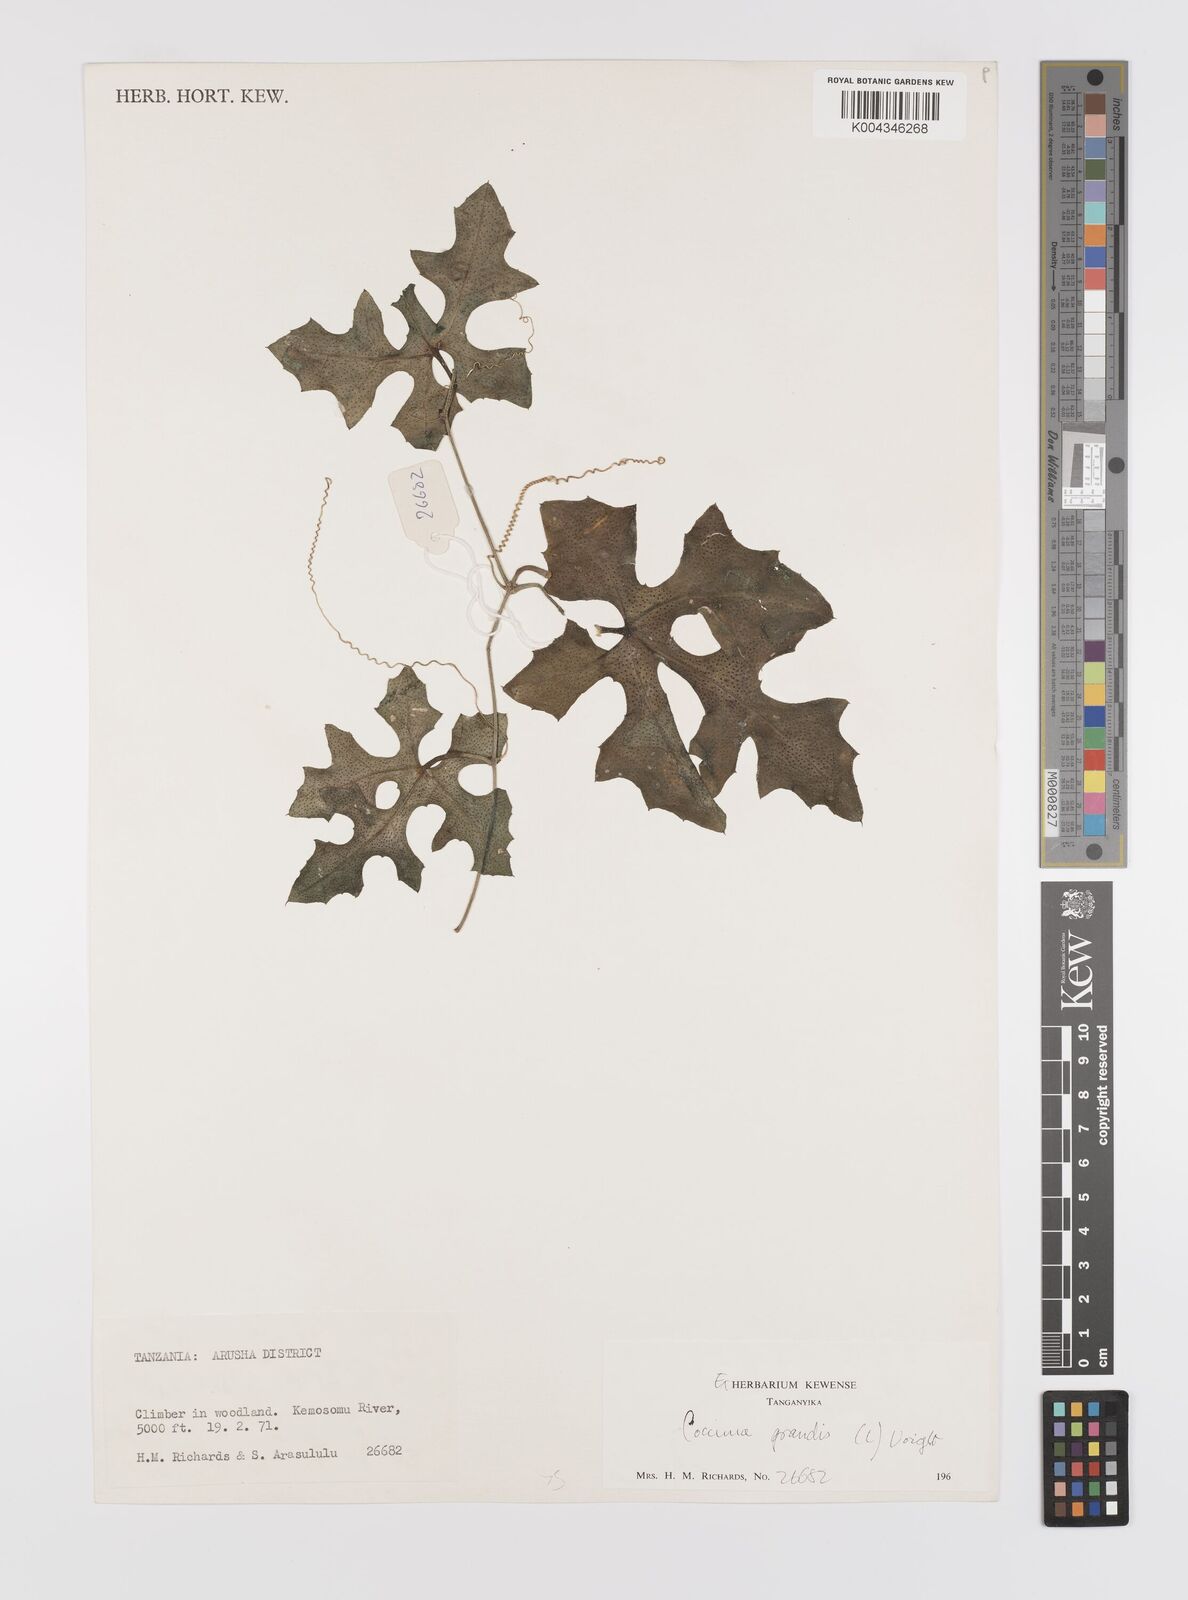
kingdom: Plantae
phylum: Tracheophyta
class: Magnoliopsida
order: Cucurbitales
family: Cucurbitaceae
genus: Coccinia
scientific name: Coccinia grandis
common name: Ivy gourd
